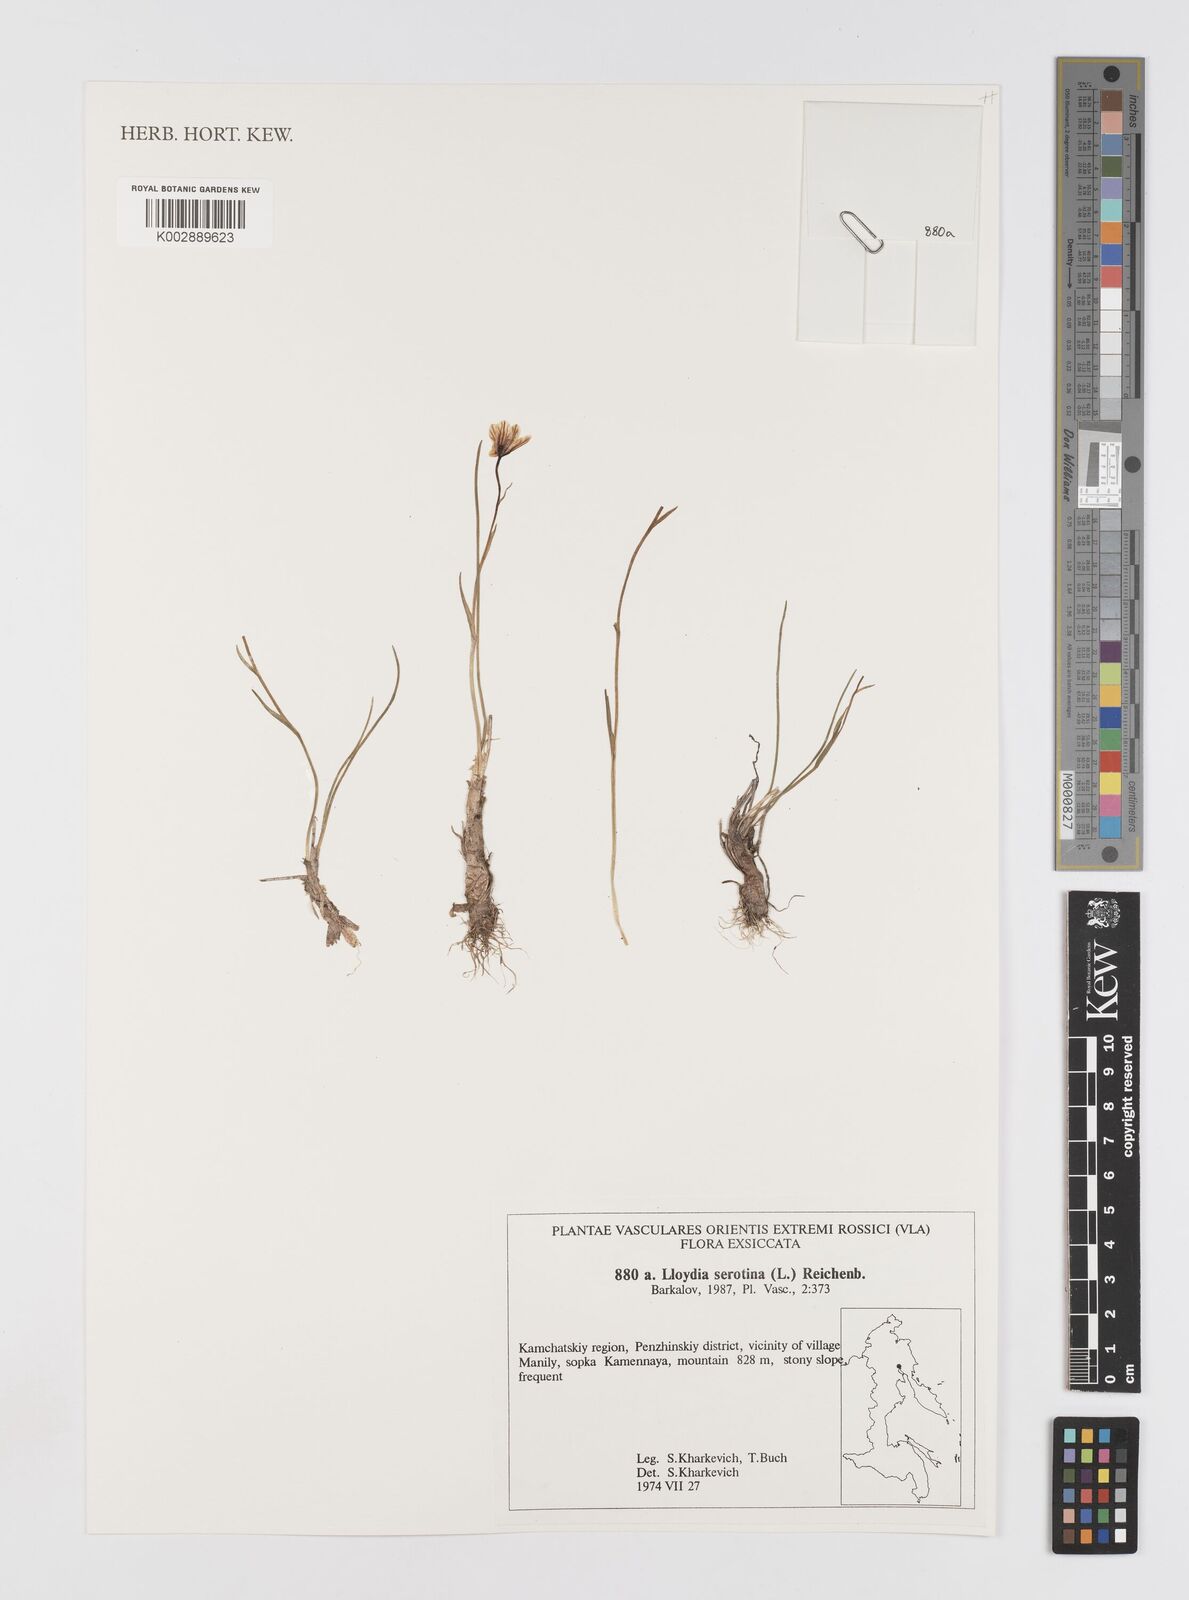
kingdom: Plantae
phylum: Tracheophyta
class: Liliopsida
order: Liliales
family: Liliaceae
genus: Gagea
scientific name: Gagea serotina
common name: Snowdon lily
